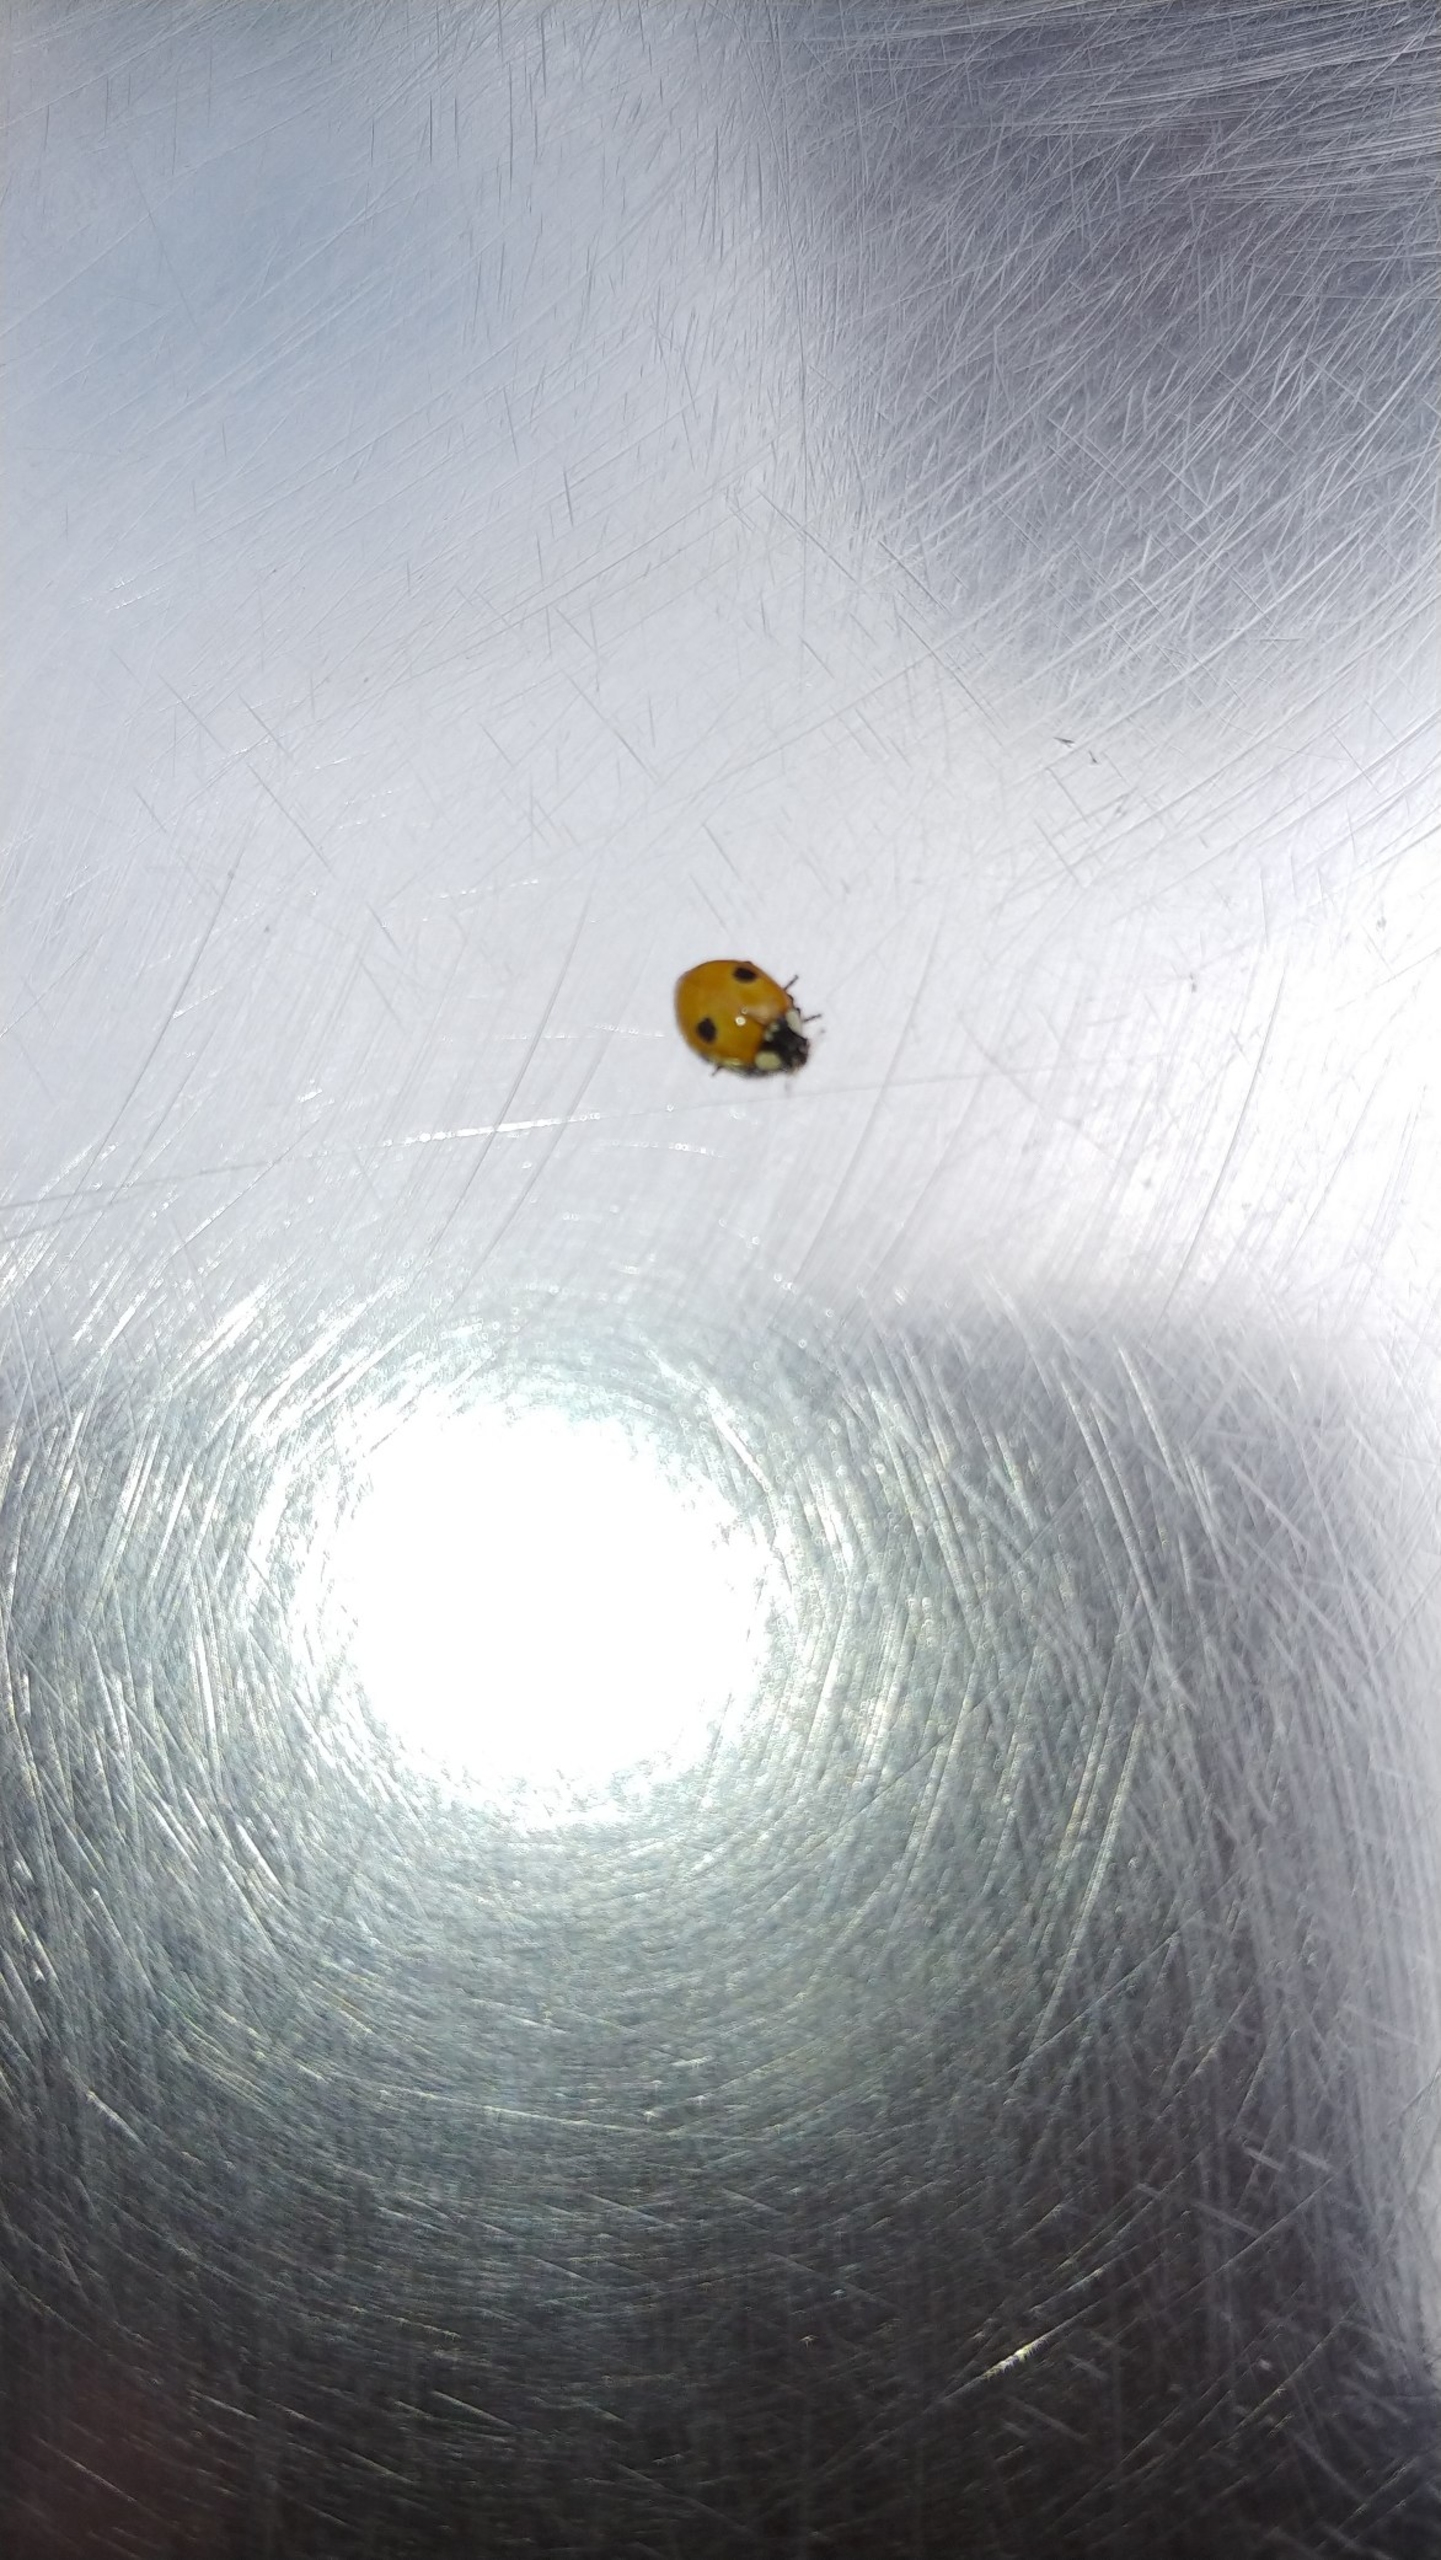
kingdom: Animalia
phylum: Arthropoda
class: Insecta
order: Coleoptera
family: Coccinellidae
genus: Adalia
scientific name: Adalia bipunctata
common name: Toplettet mariehøne
